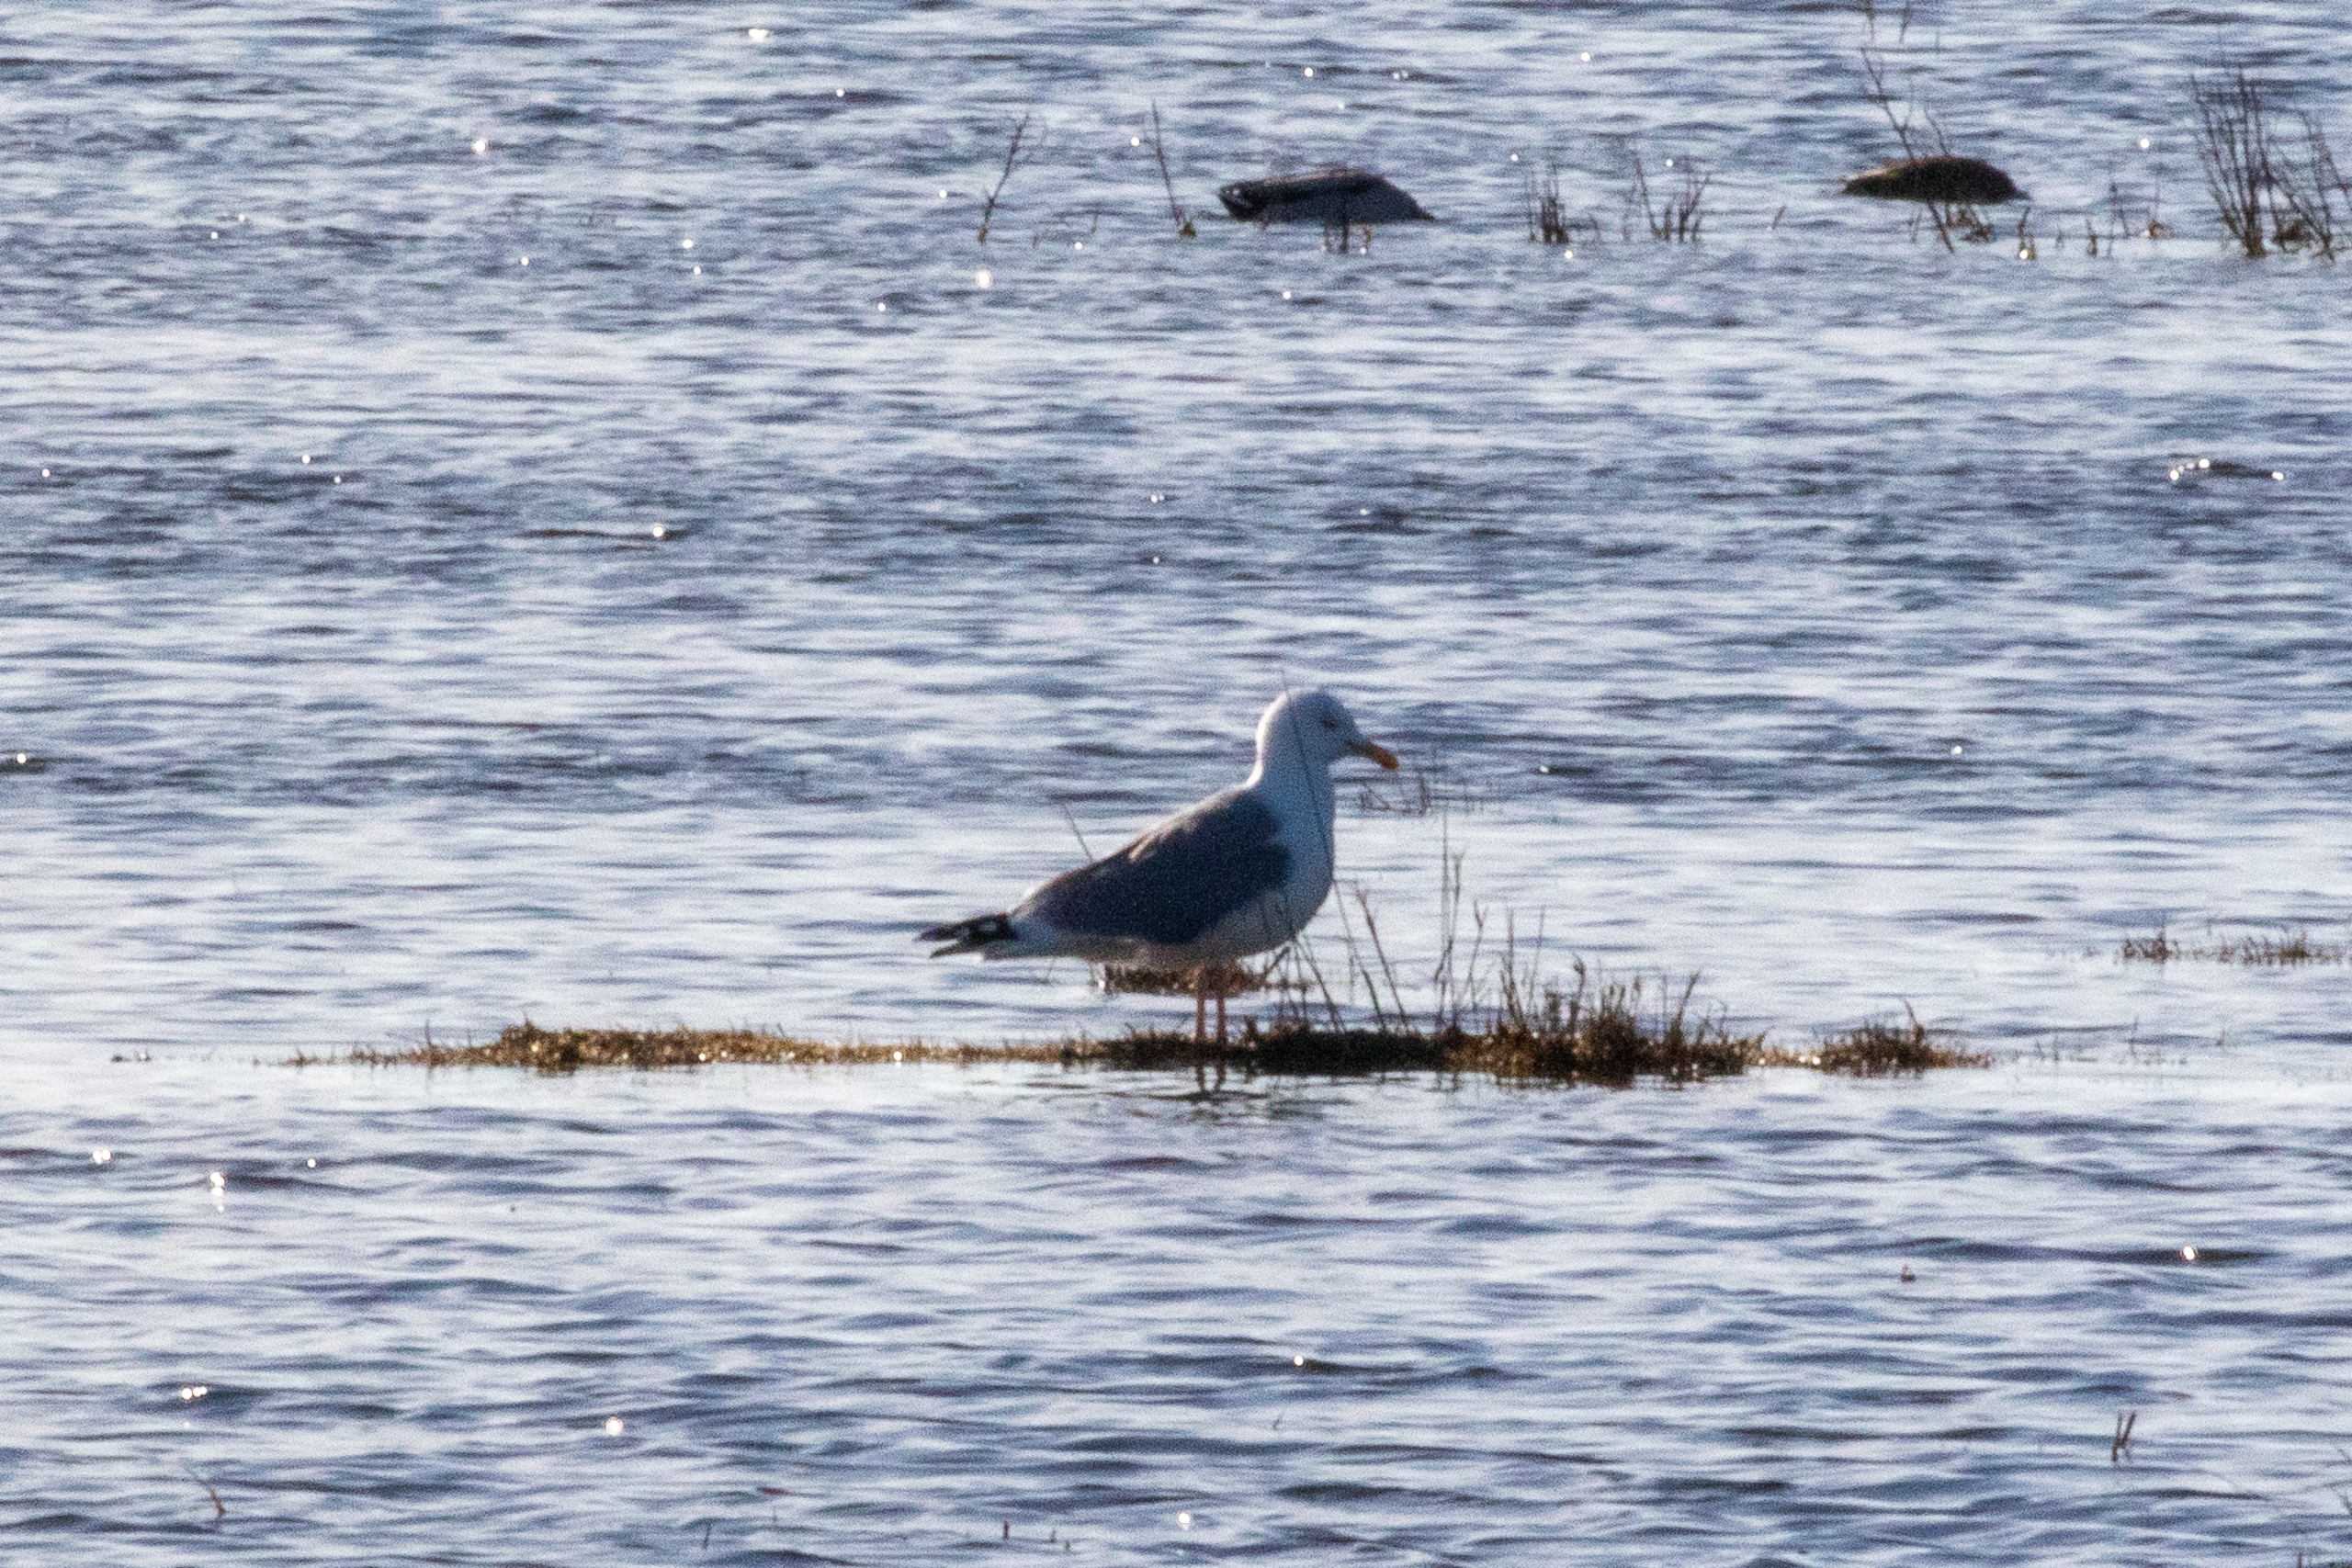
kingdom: Animalia
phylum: Chordata
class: Aves
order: Charadriiformes
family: Laridae
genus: Larus
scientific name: Larus argentatus
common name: Sølvmåge
